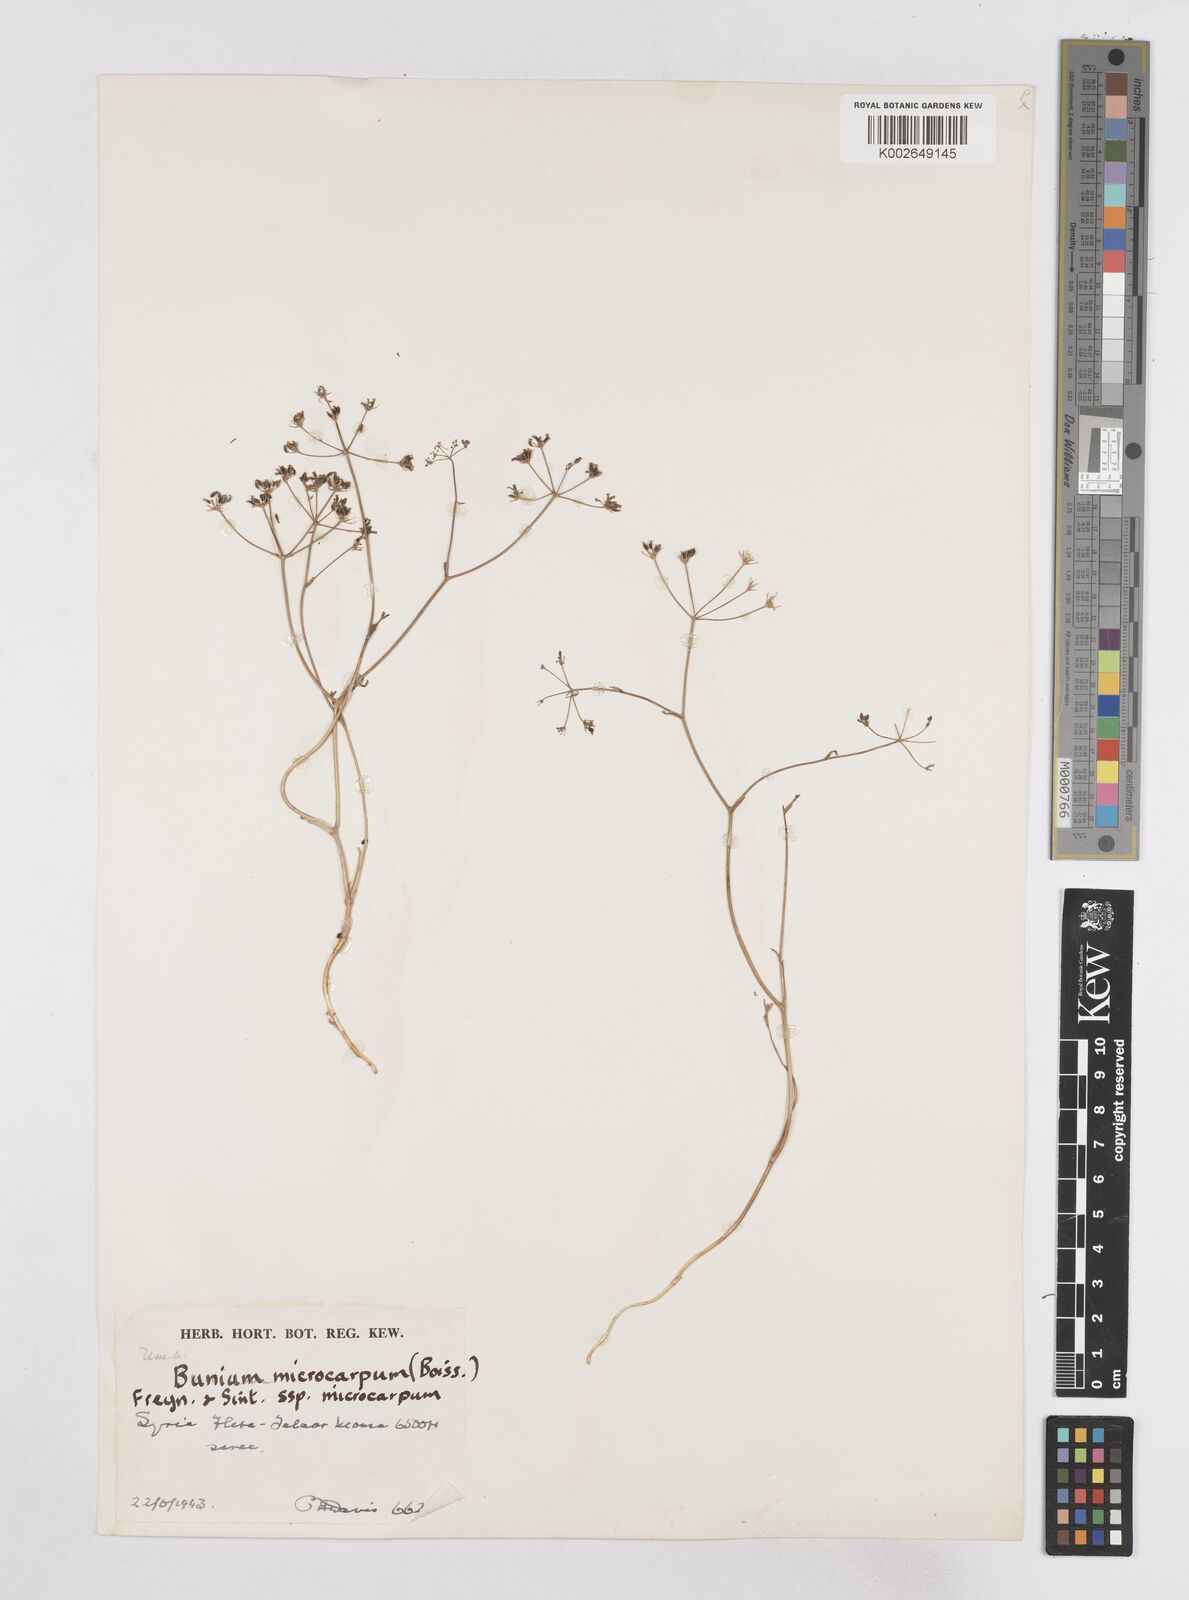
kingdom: Plantae
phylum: Tracheophyta
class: Magnoliopsida
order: Apiales
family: Apiaceae
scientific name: Apiaceae
